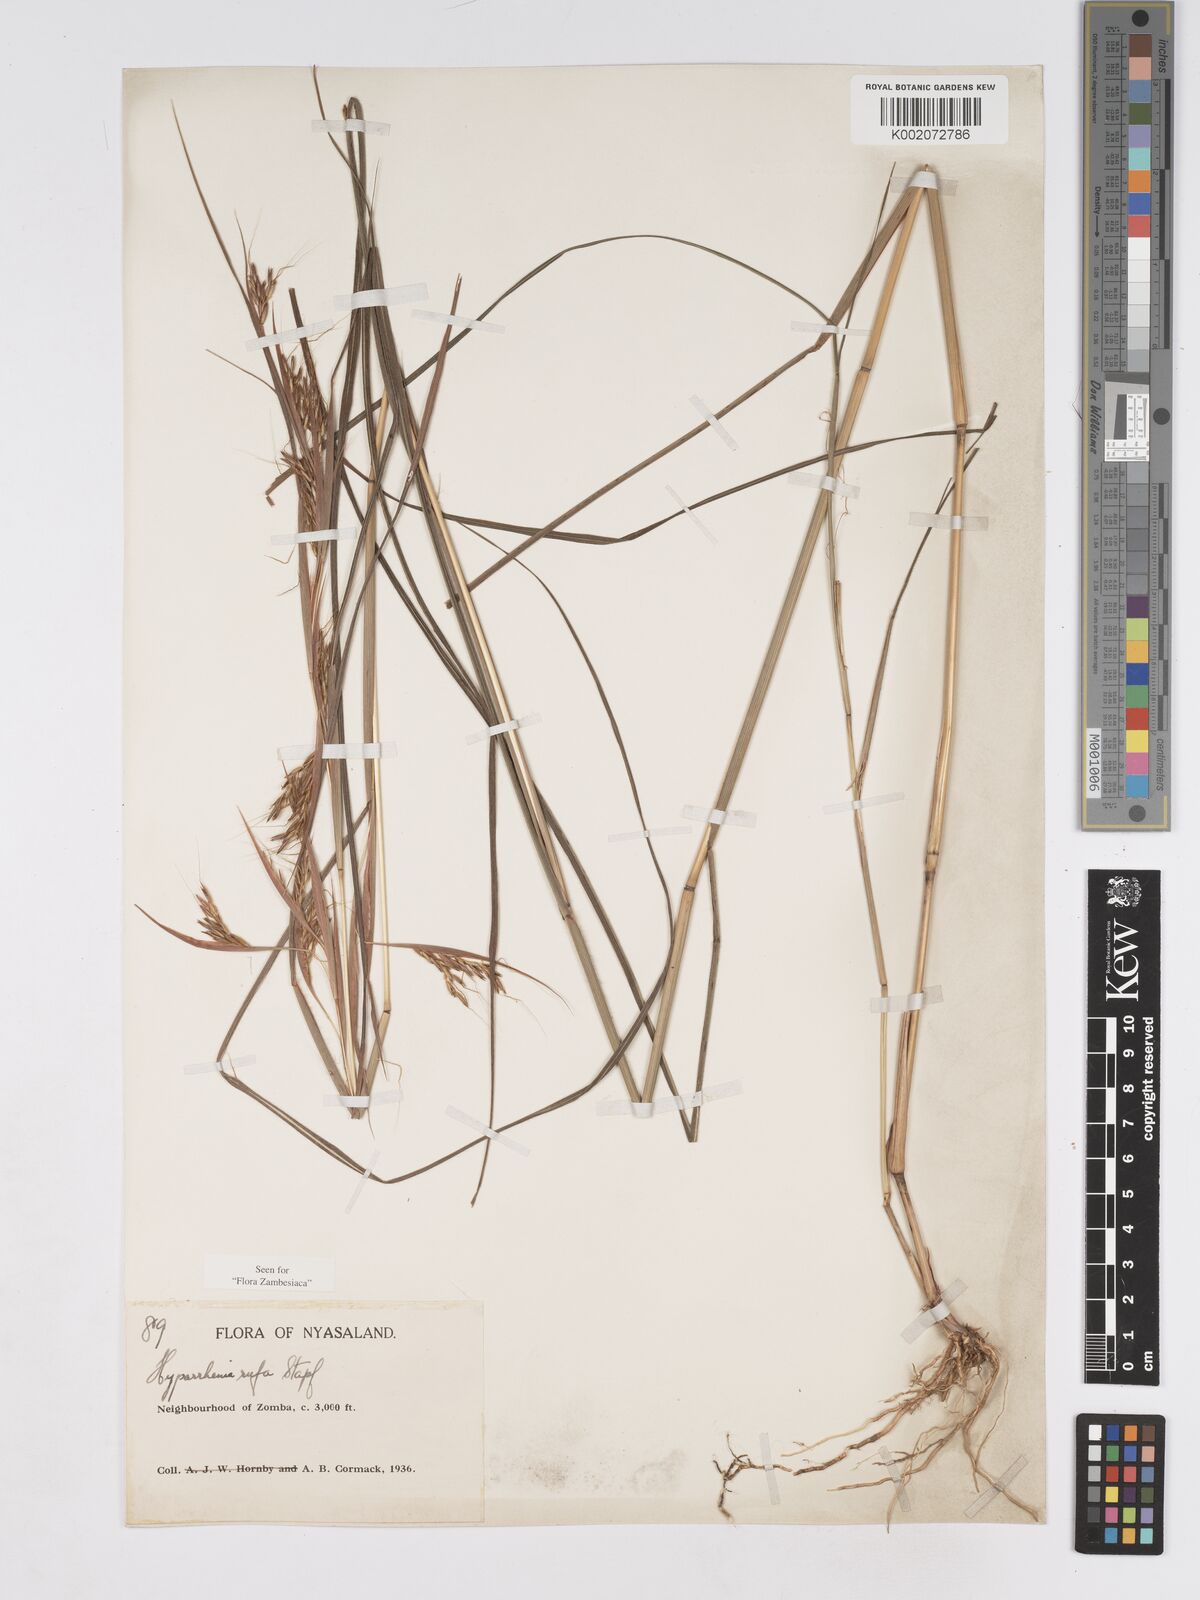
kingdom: Plantae
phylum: Tracheophyta
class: Liliopsida
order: Poales
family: Poaceae
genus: Hyparrhenia
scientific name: Hyparrhenia rufa
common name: Jaraguagrass
